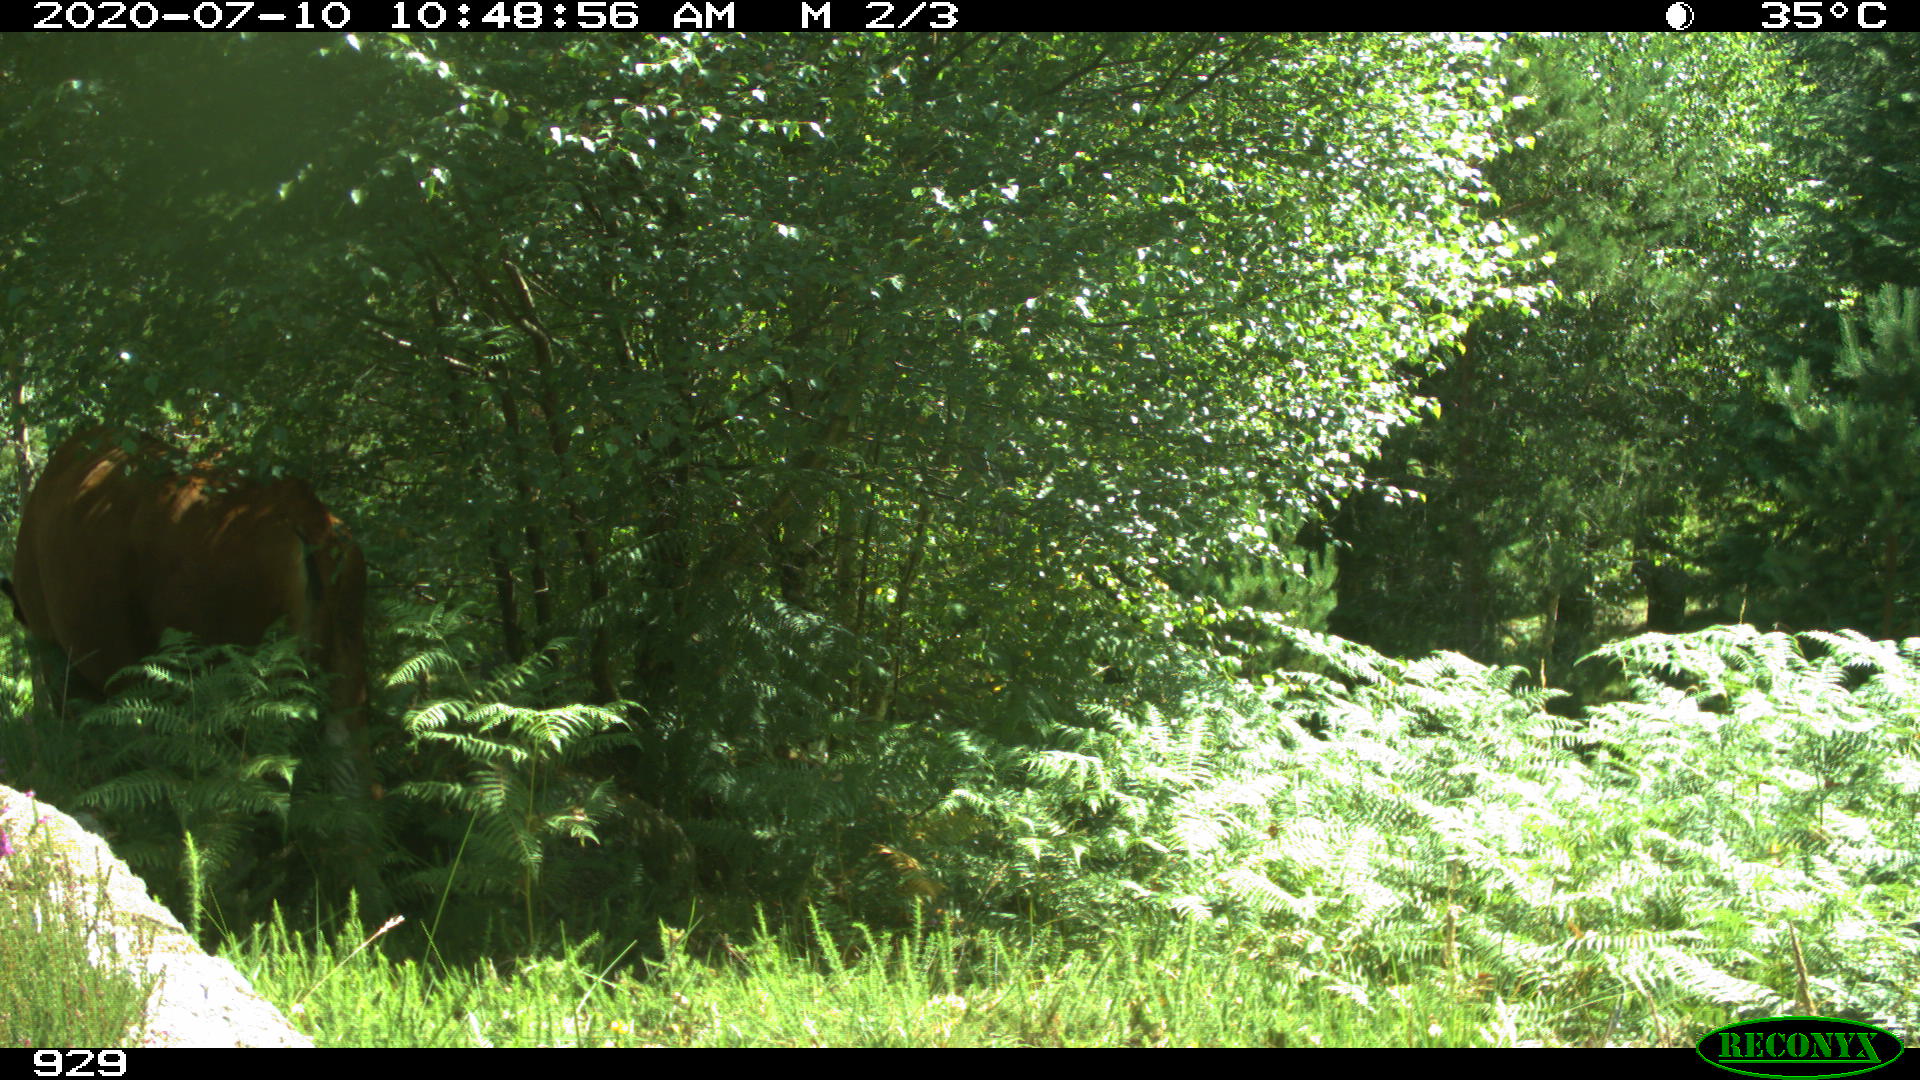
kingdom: Animalia
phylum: Chordata
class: Mammalia
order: Artiodactyla
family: Bovidae
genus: Bos
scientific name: Bos taurus
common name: Domesticated cattle
